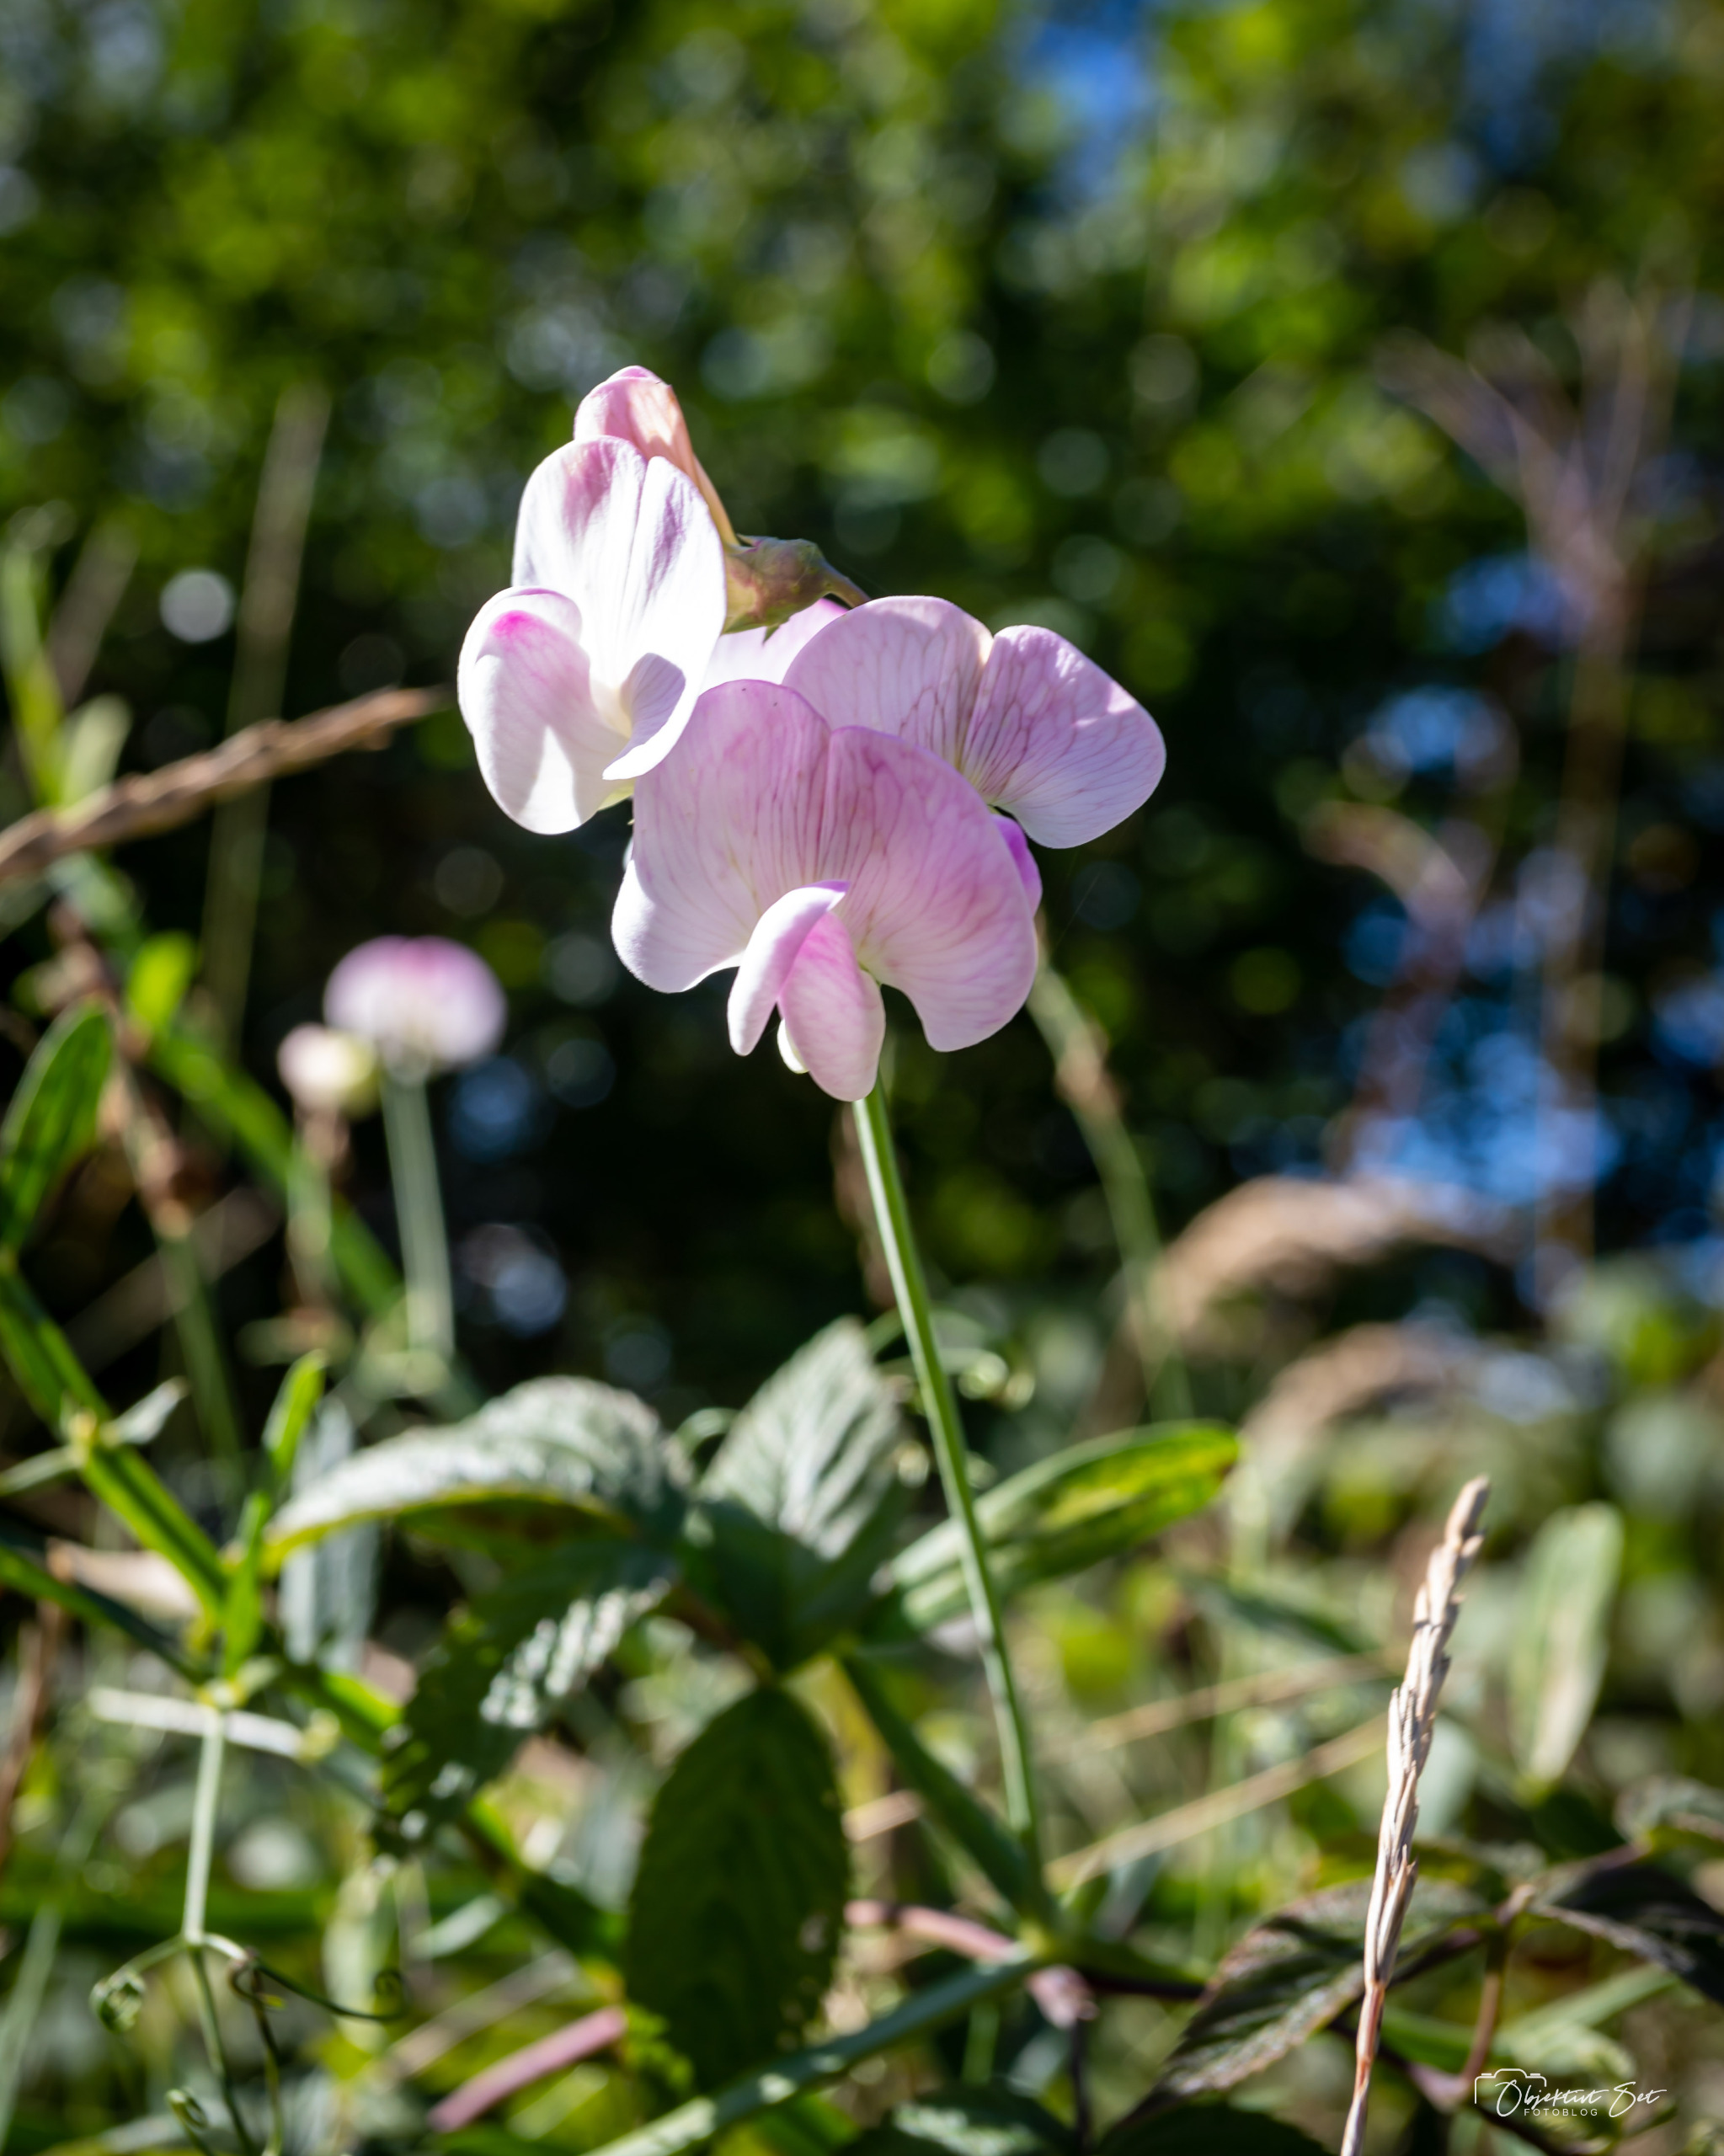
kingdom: Plantae
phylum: Tracheophyta
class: Magnoliopsida
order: Fabales
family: Fabaceae
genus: Lathyrus
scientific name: Lathyrus latifolius
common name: Flerårig ærteblomst
